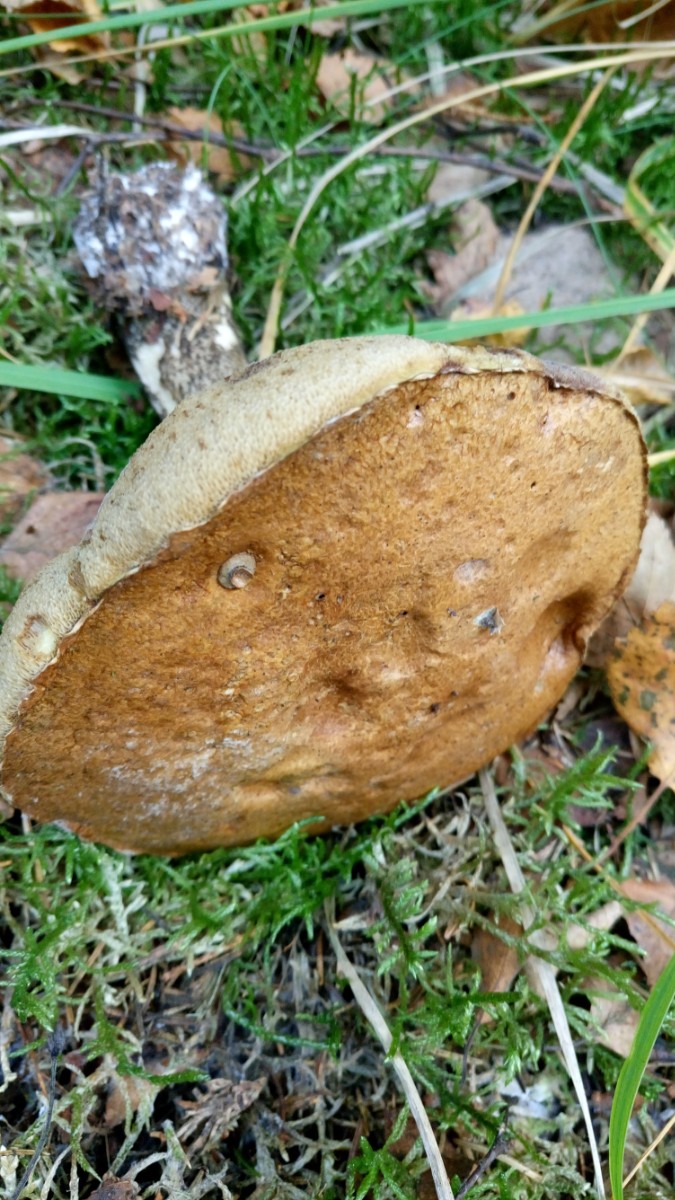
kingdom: Fungi
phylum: Basidiomycota
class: Agaricomycetes
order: Boletales
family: Boletaceae
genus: Leccinum
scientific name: Leccinum versipelle
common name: orange skælrørhat
